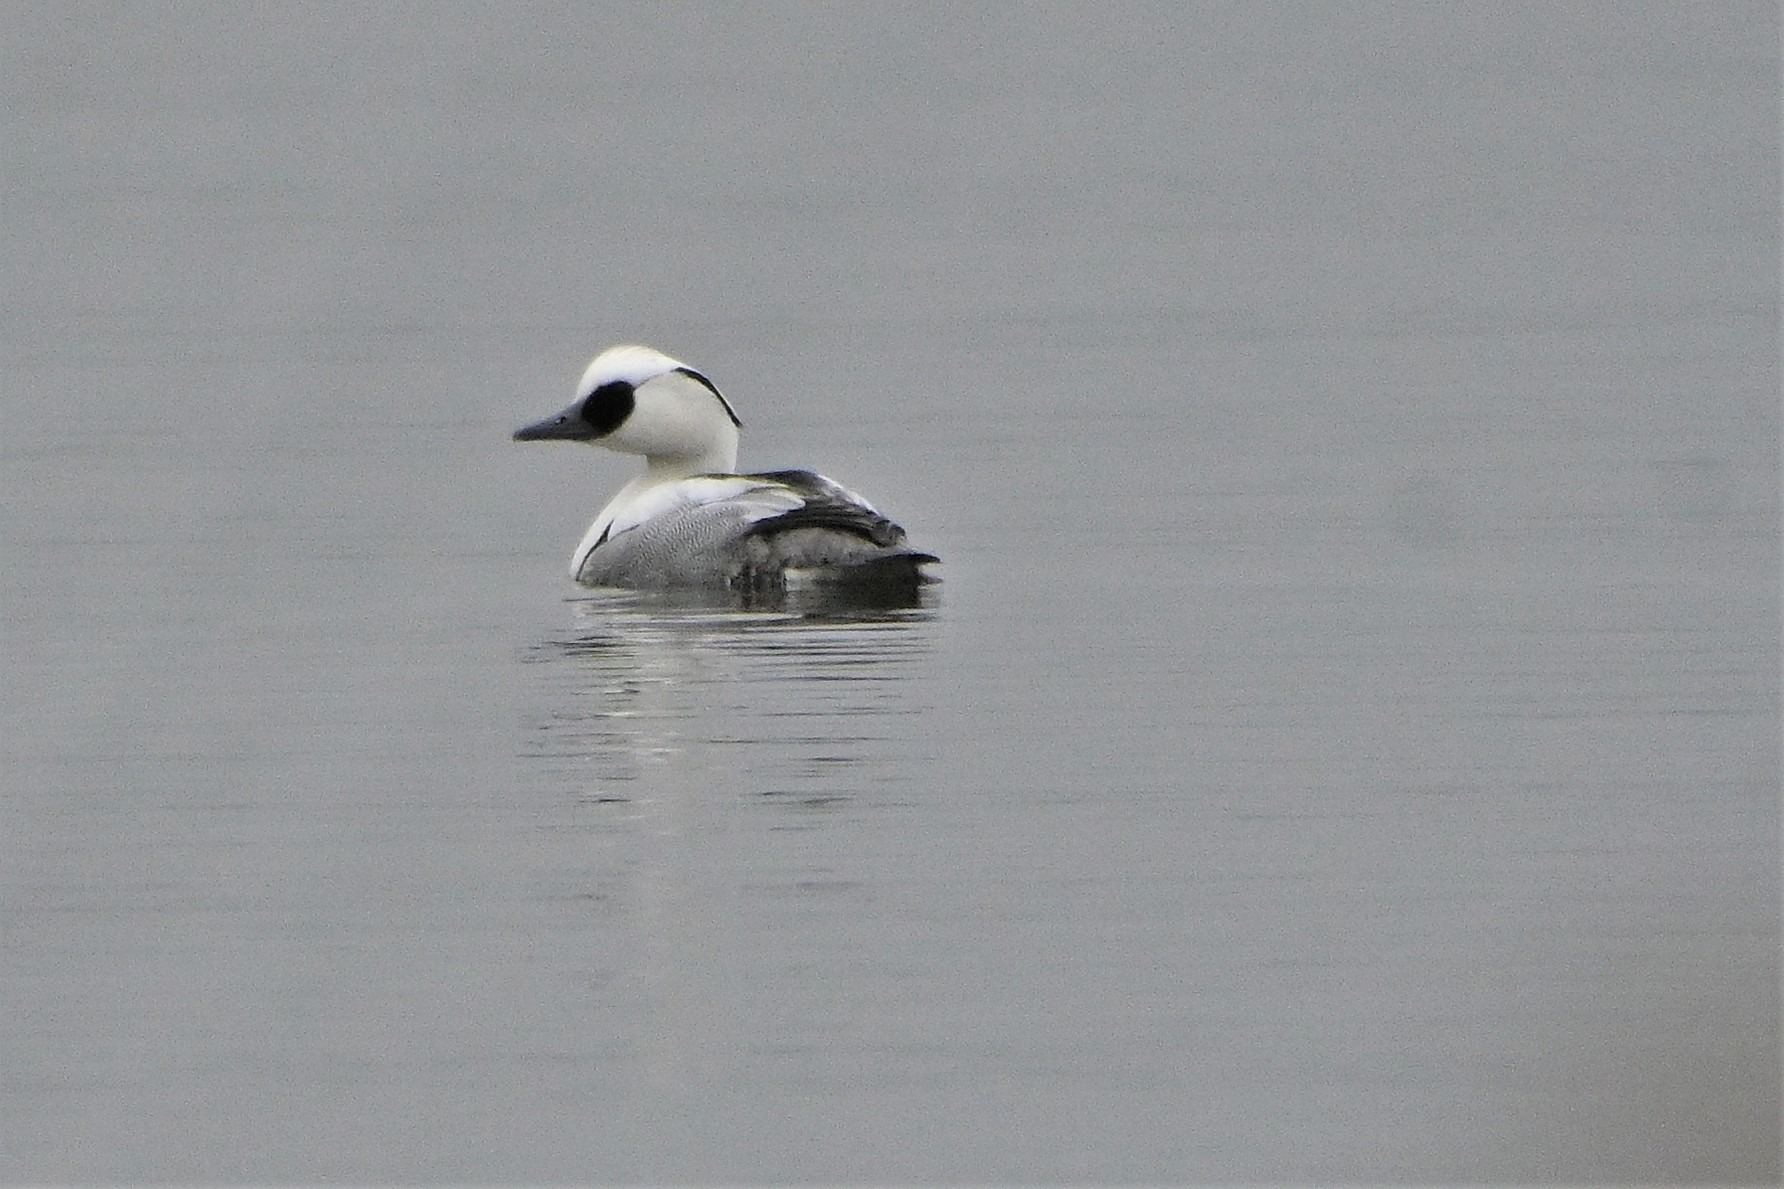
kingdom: Animalia
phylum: Chordata
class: Aves
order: Anseriformes
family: Anatidae
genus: Mergellus
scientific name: Mergellus albellus
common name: Lille skallesluger
